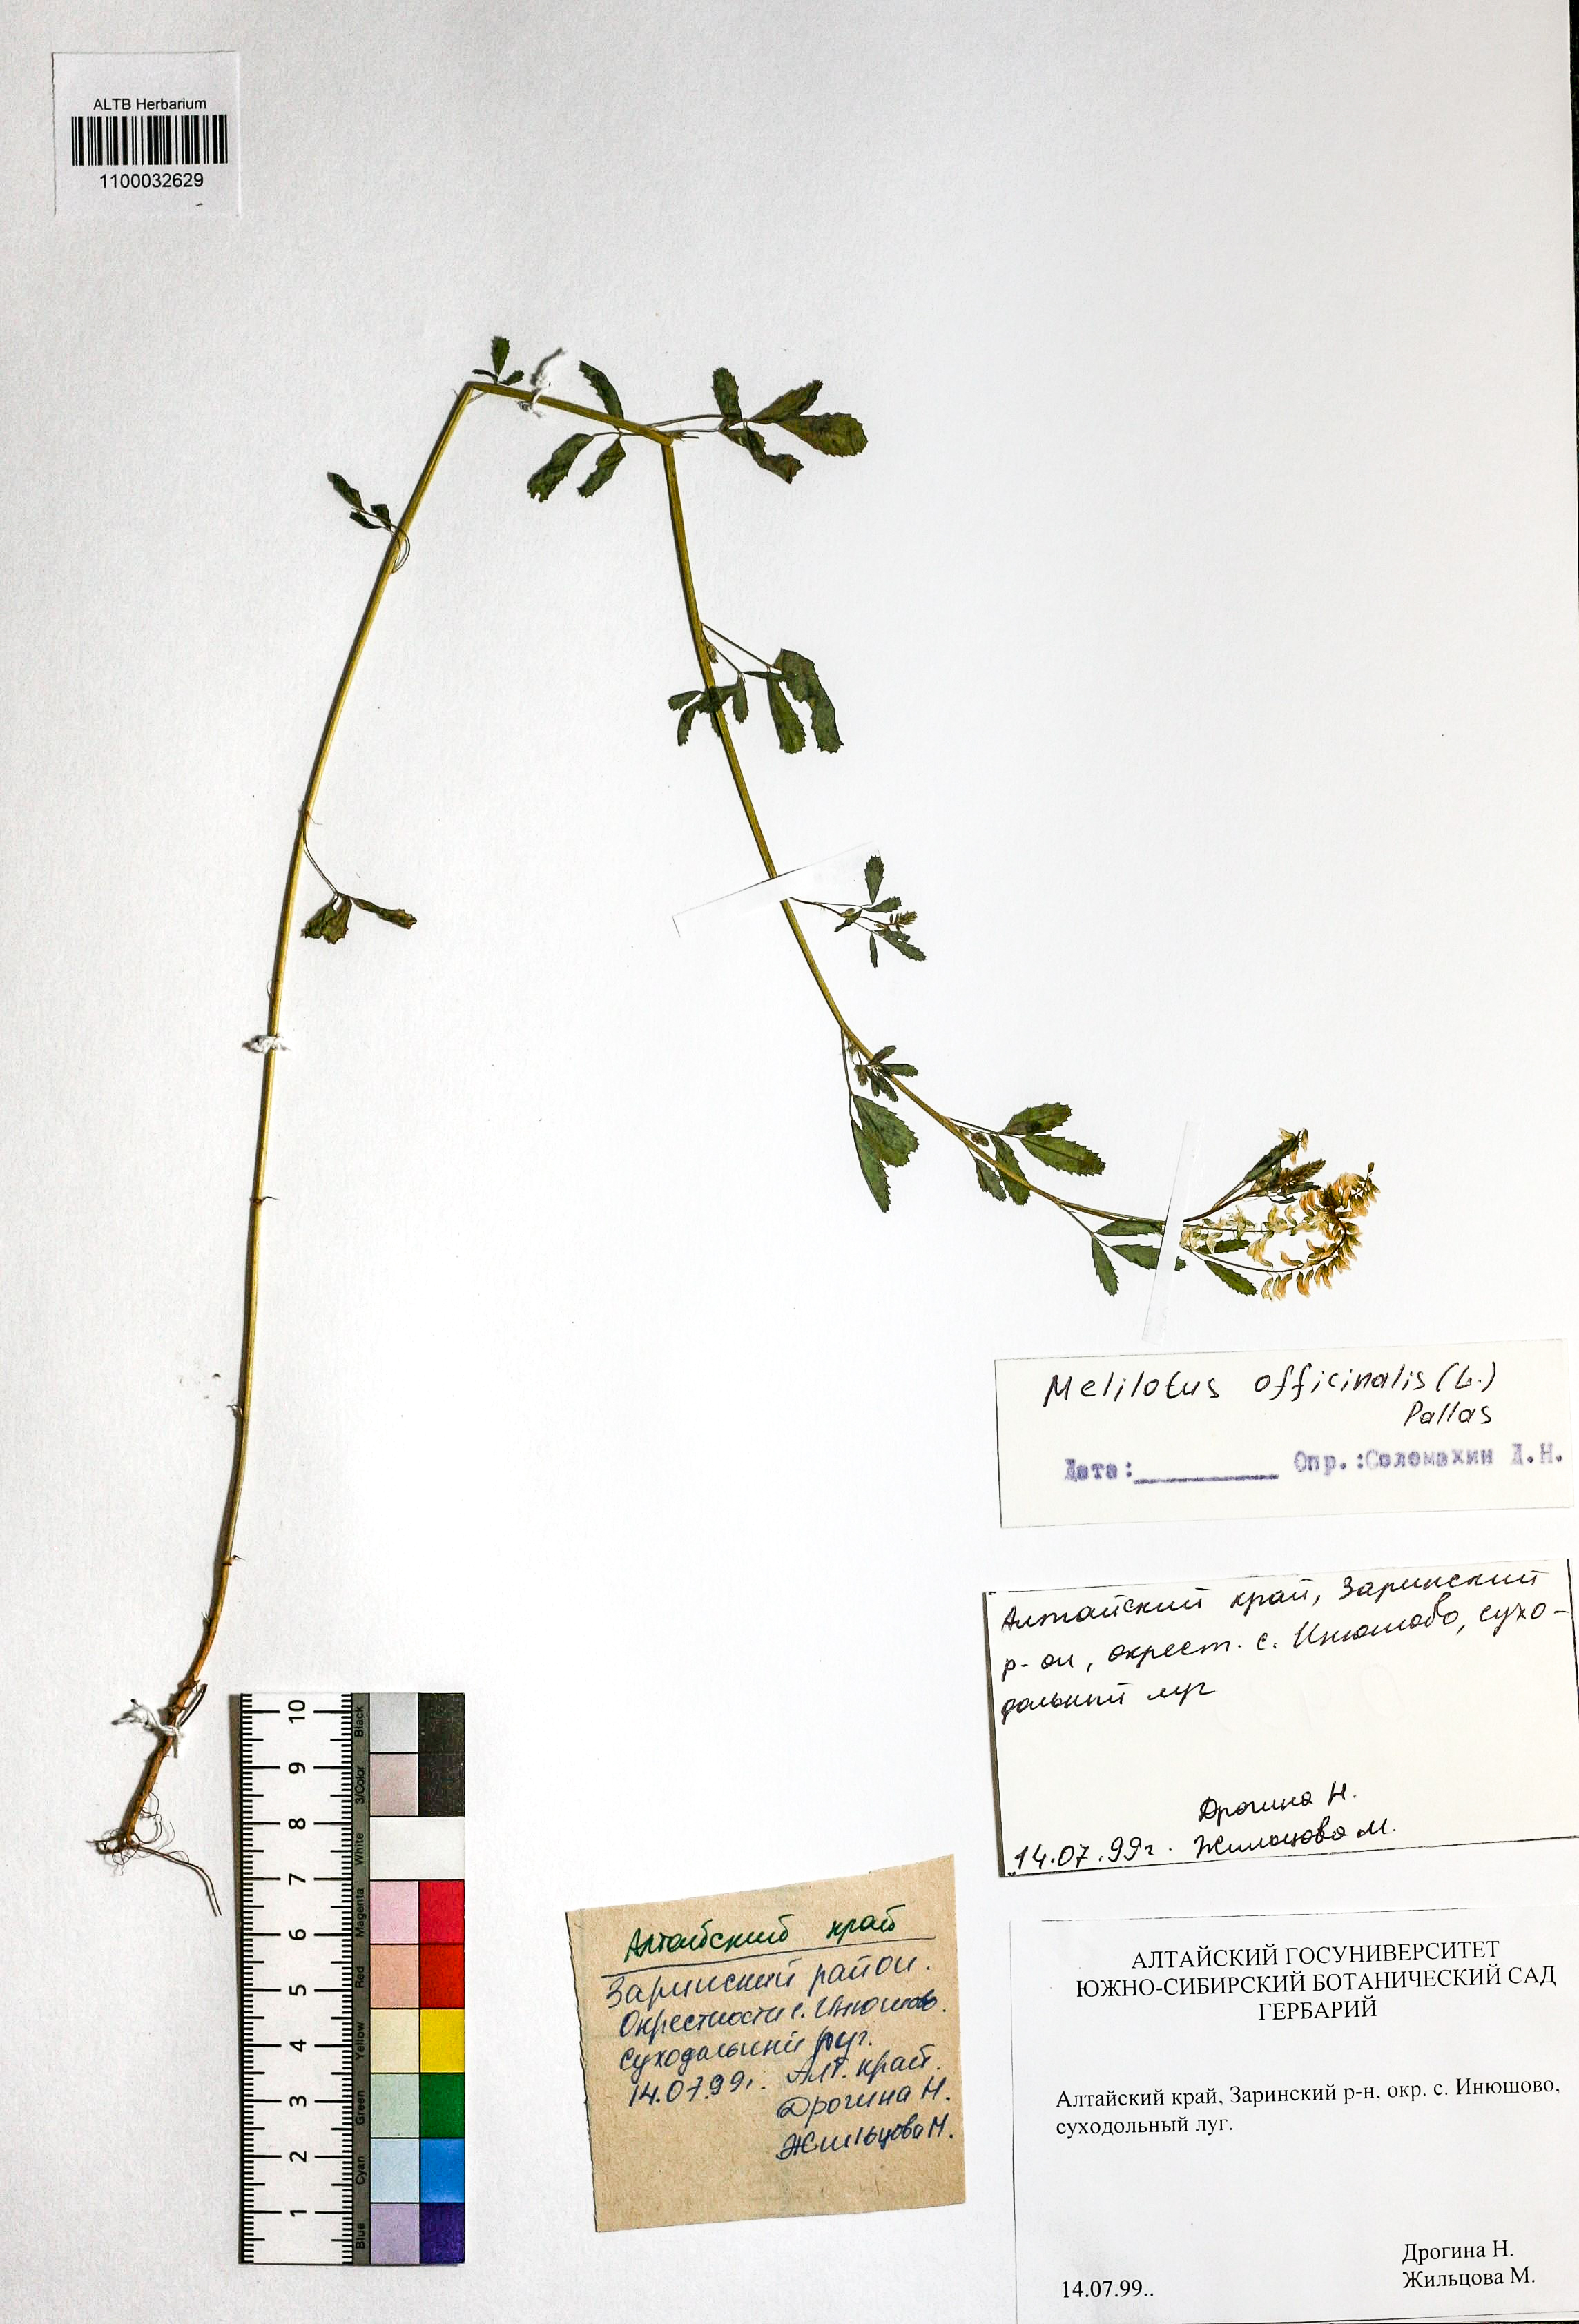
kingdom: Plantae
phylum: Tracheophyta
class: Magnoliopsida
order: Fabales
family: Fabaceae
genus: Melilotus
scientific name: Melilotus officinalis
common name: Sweetclover
